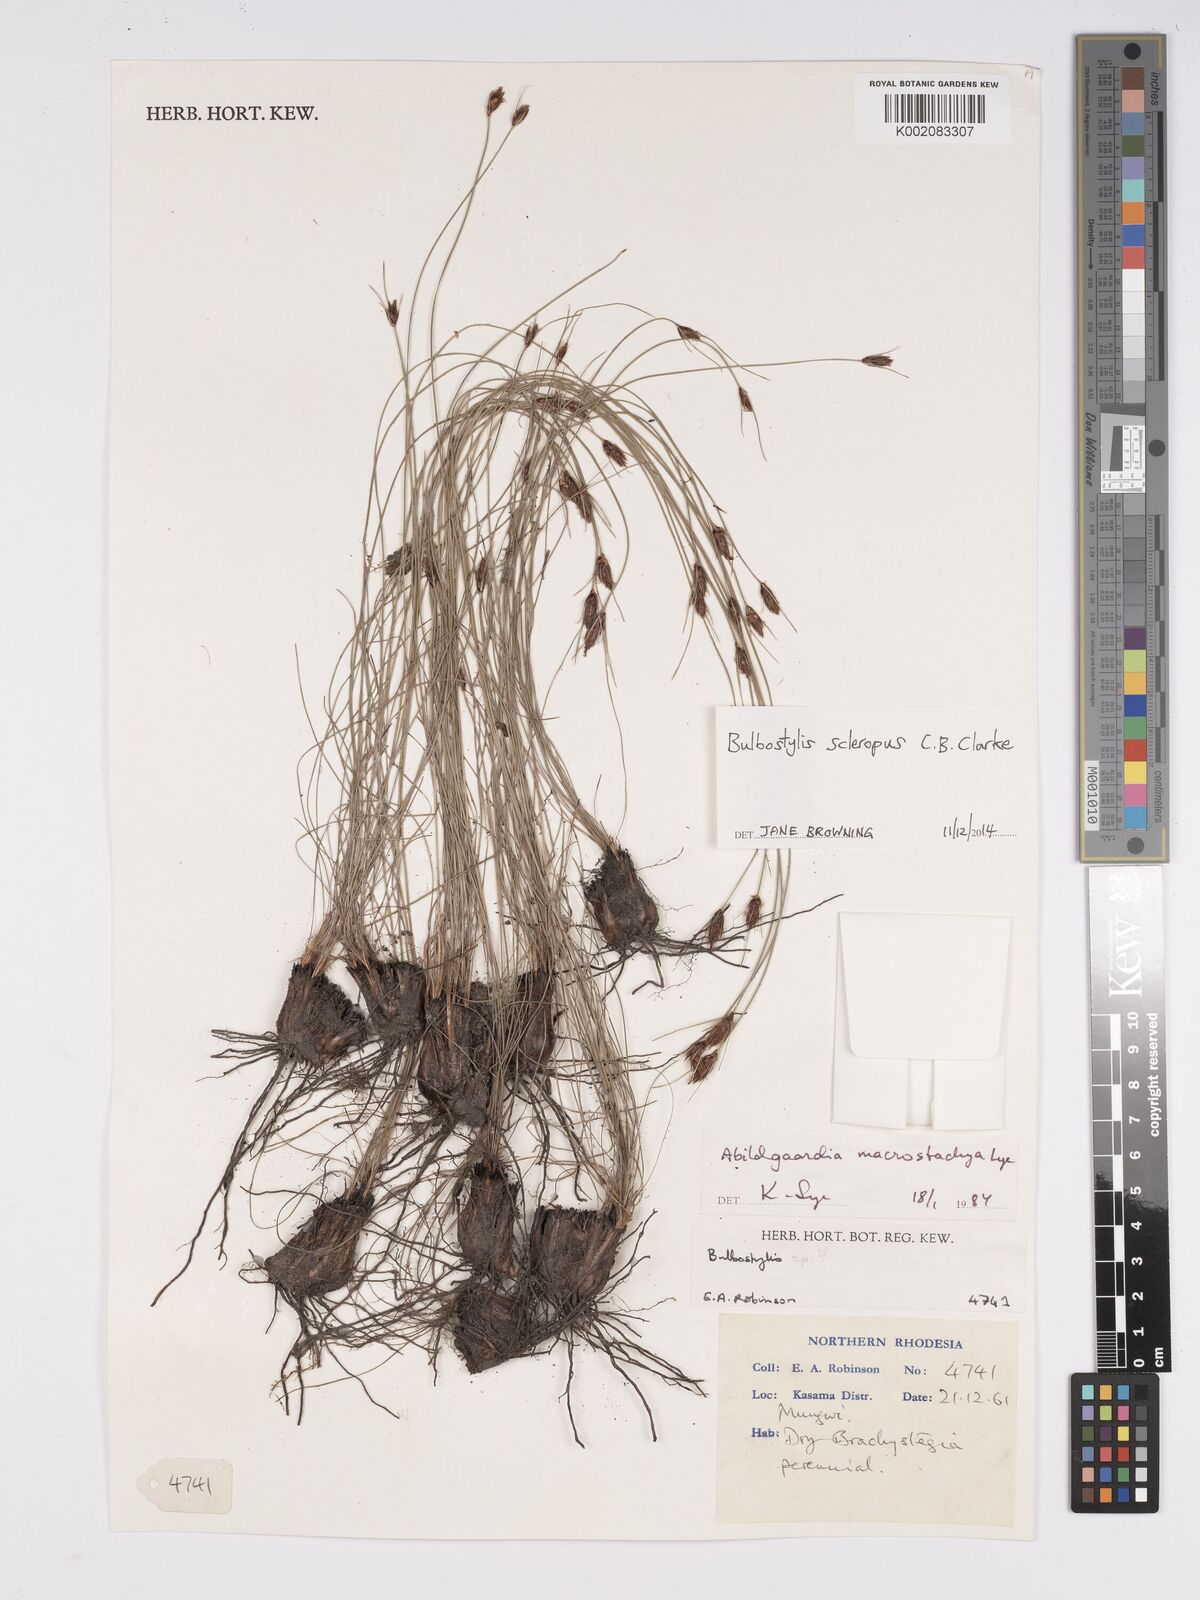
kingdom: Plantae
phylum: Tracheophyta
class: Liliopsida
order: Poales
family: Cyperaceae
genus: Bulbostylis
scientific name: Bulbostylis macrostachya
